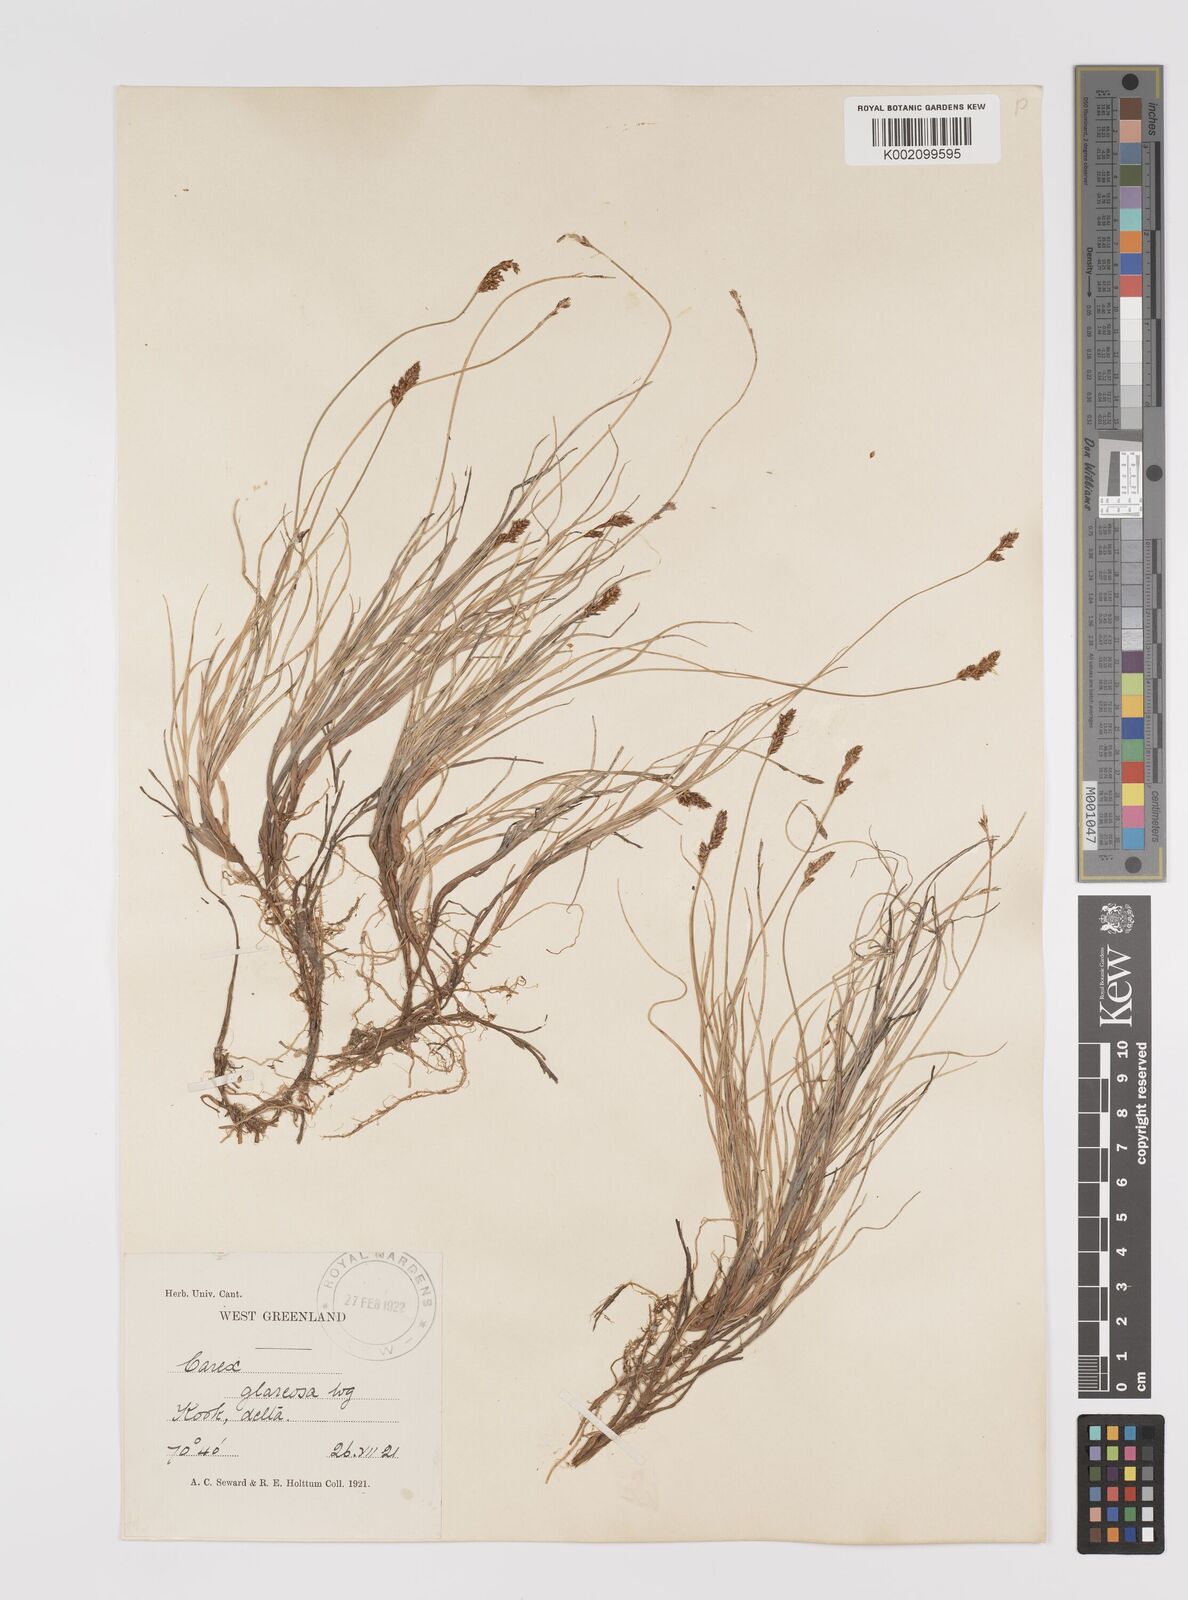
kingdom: Plantae
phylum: Tracheophyta
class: Liliopsida
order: Poales
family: Cyperaceae
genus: Carex
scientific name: Carex glareosa
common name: Clustered sedge
